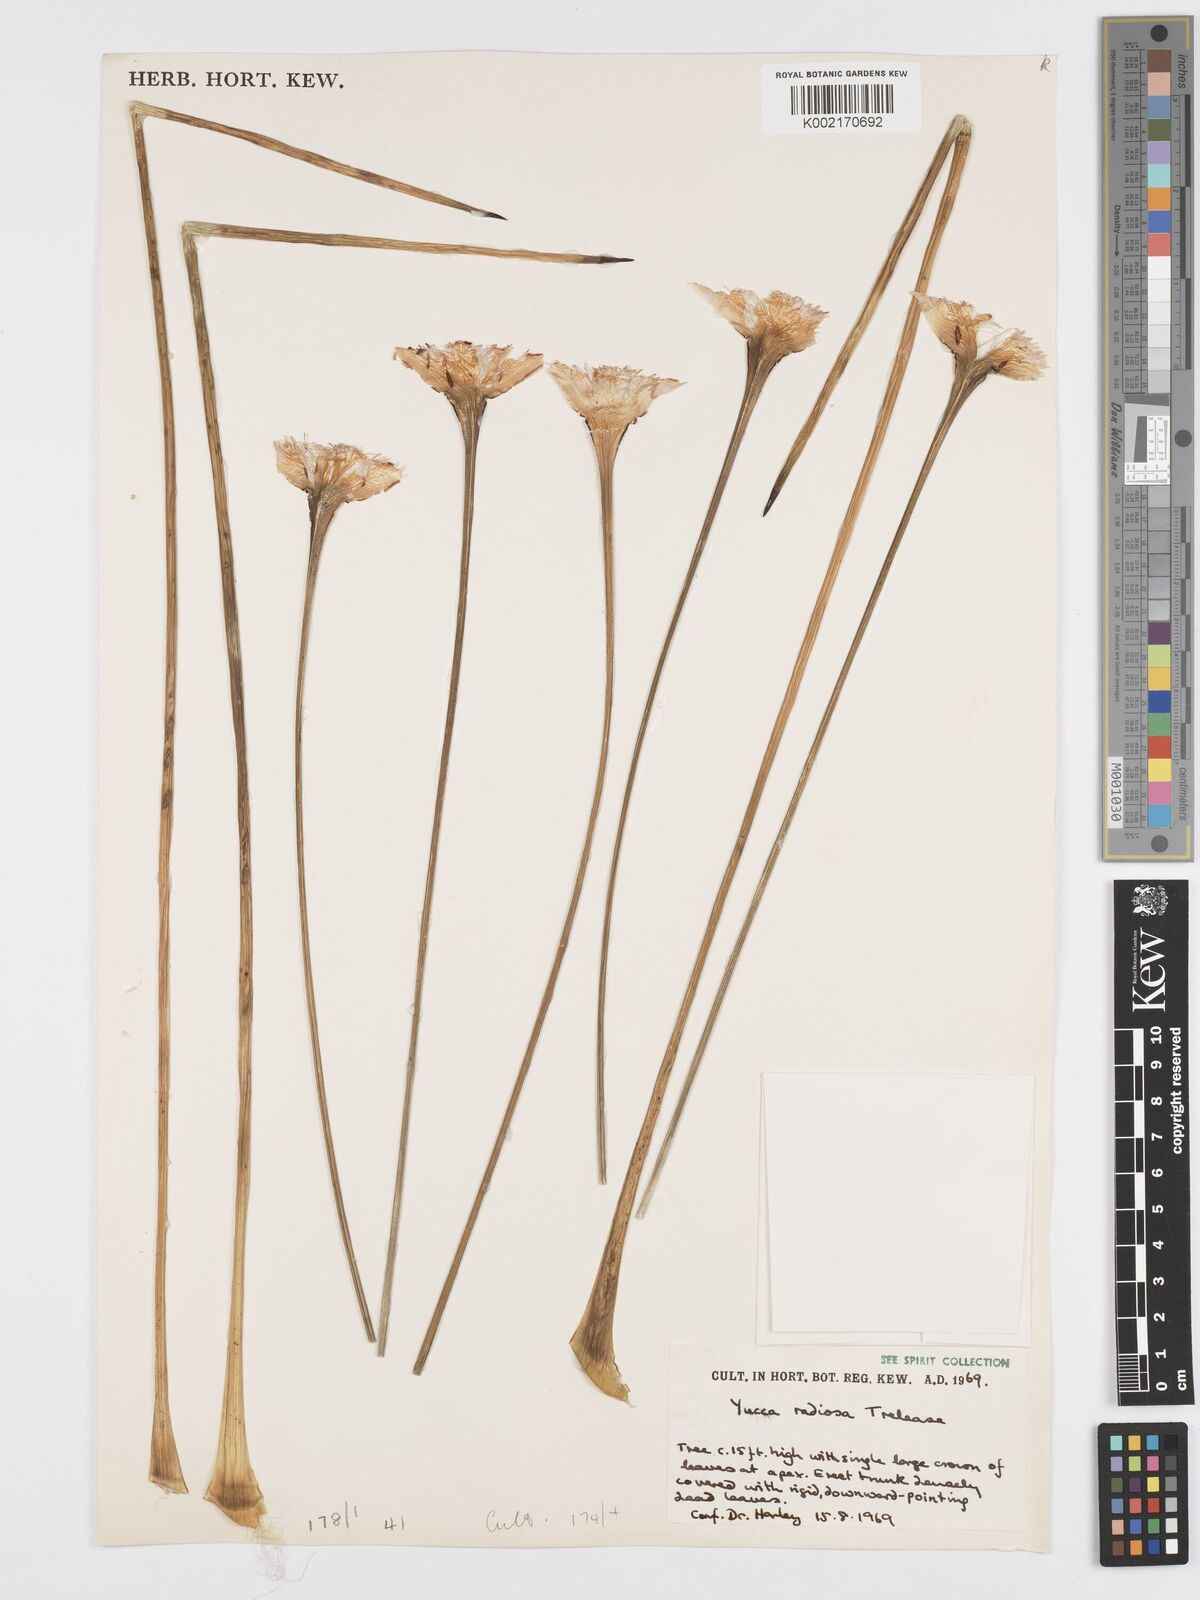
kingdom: Plantae
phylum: Tracheophyta
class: Liliopsida
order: Asparagales
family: Asparagaceae
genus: Yucca
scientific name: Yucca elata
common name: Palmella
